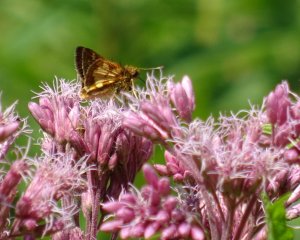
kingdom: Animalia
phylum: Arthropoda
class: Insecta
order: Lepidoptera
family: Hesperiidae
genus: Polites
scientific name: Polites coras
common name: Peck's Skipper
